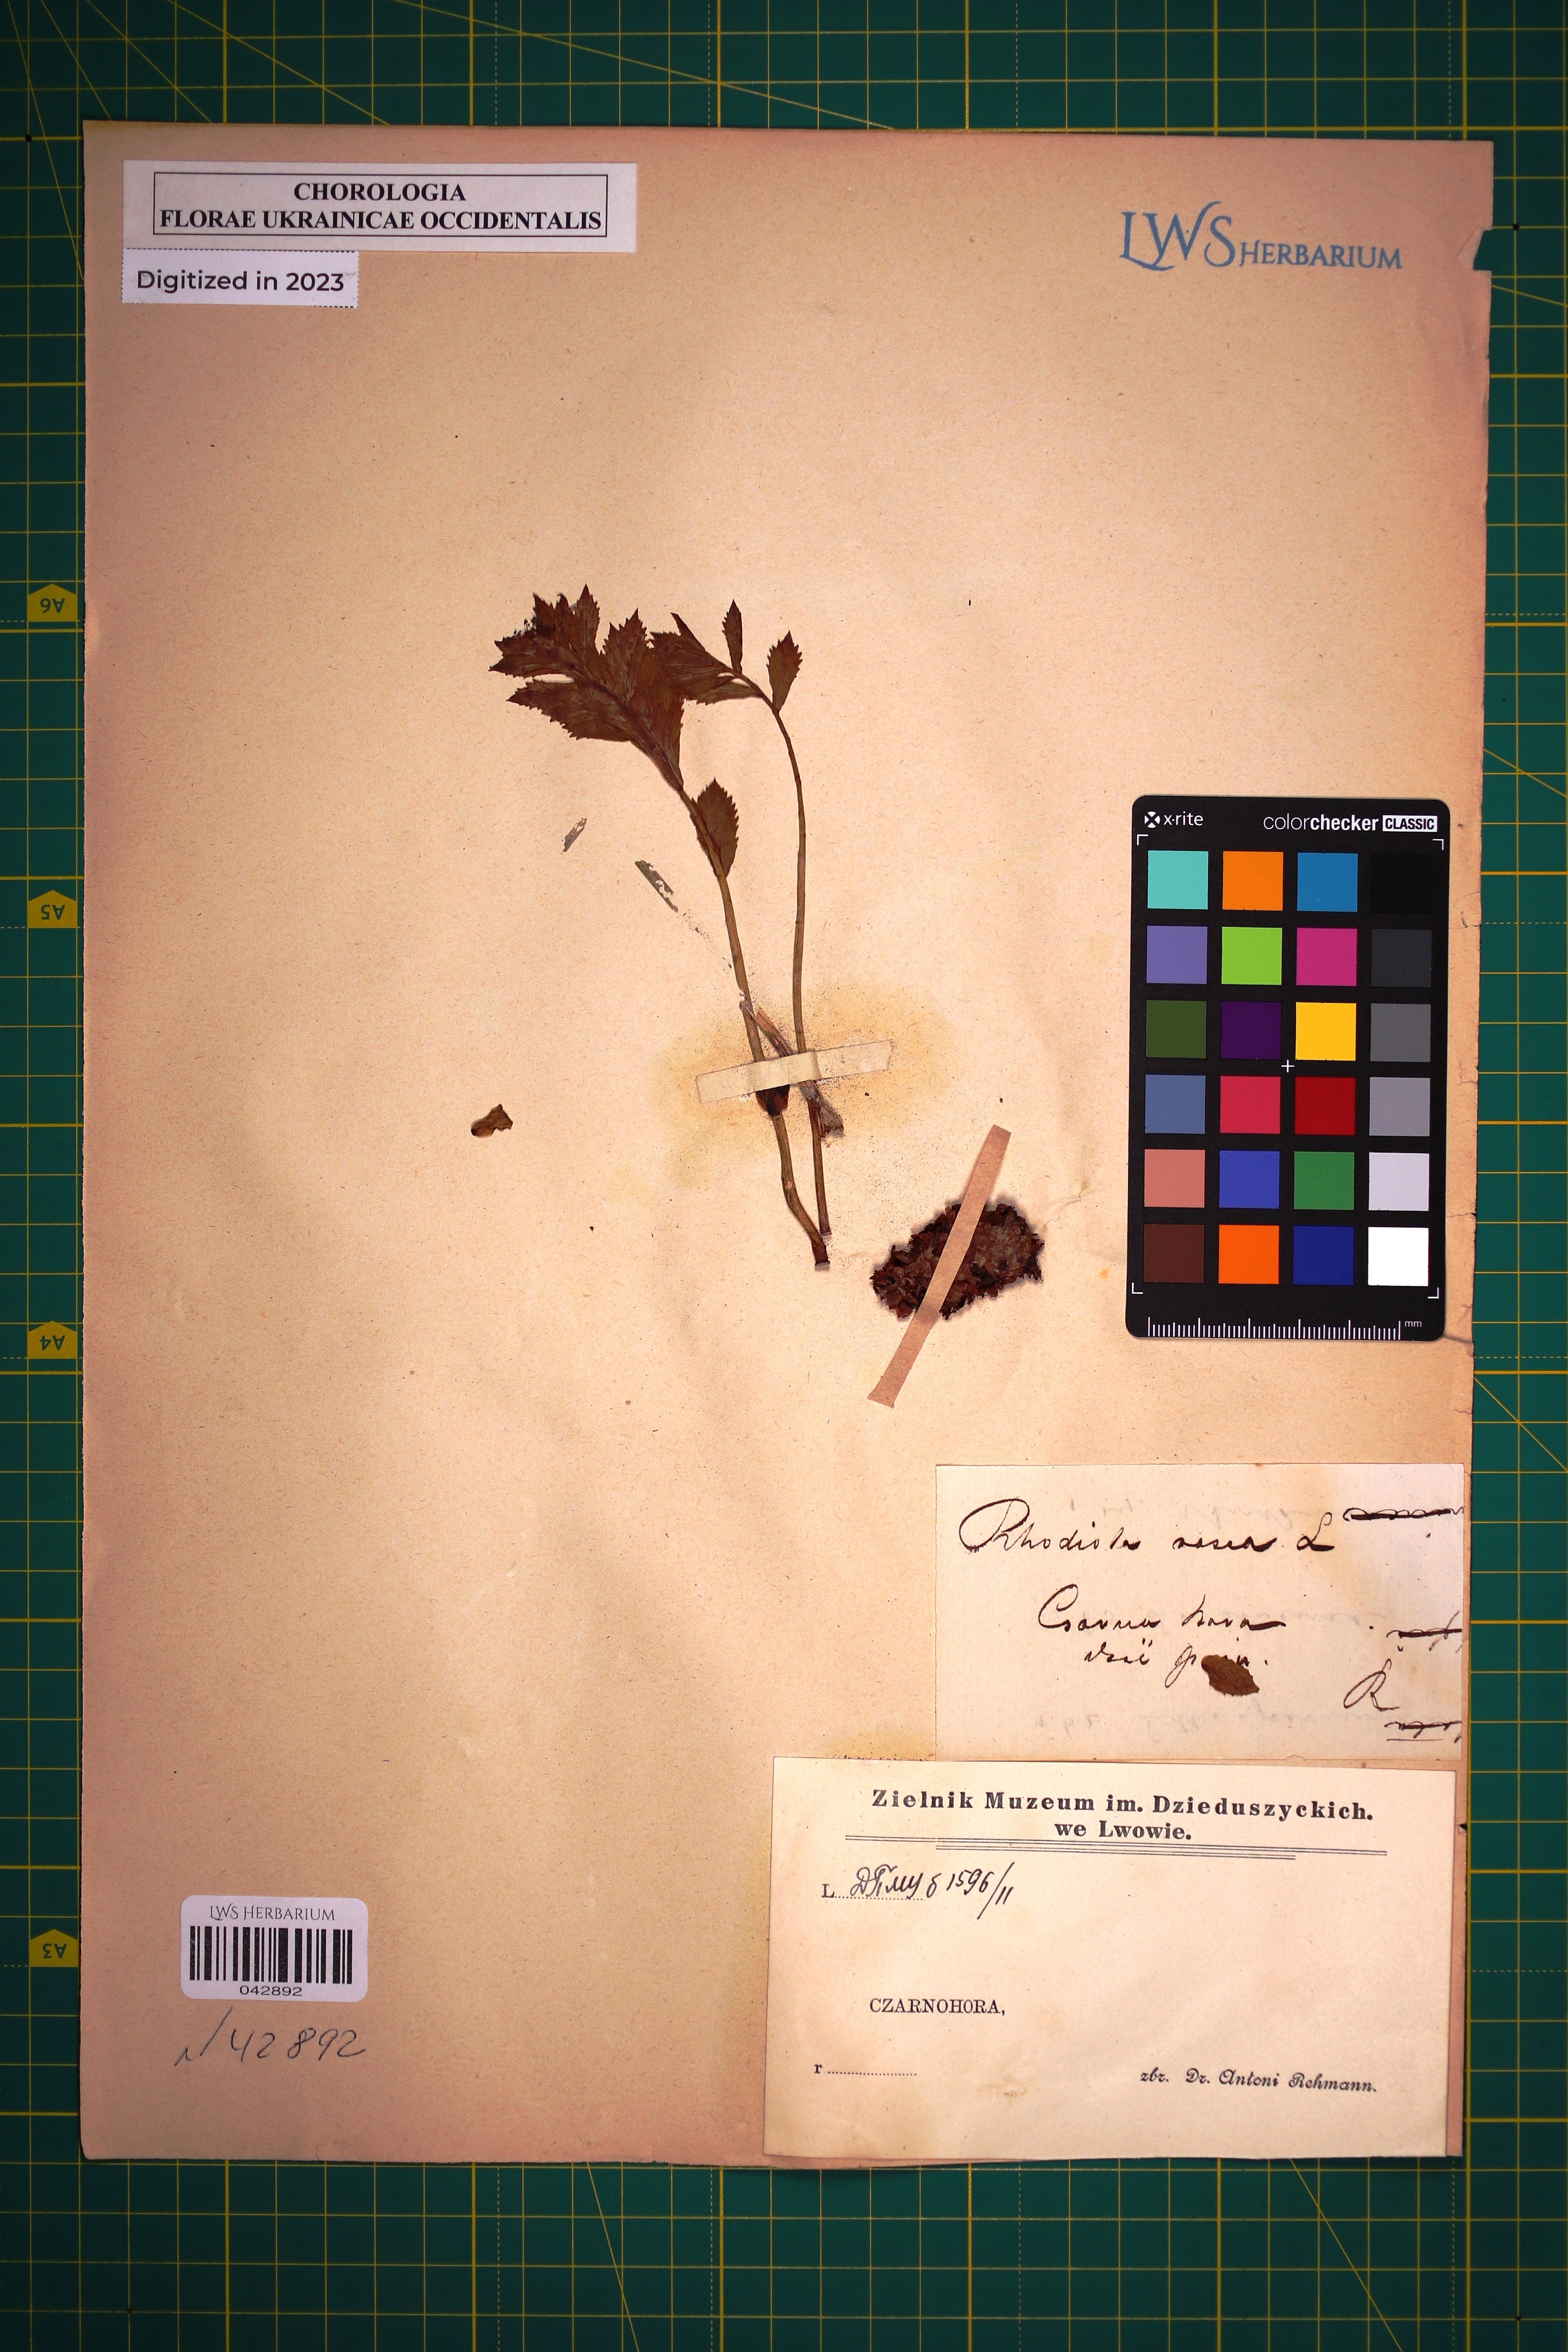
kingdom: Plantae
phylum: Tracheophyta
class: Magnoliopsida
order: Saxifragales
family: Crassulaceae
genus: Rhodiola
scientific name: Rhodiola rosea
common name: Roseroot
